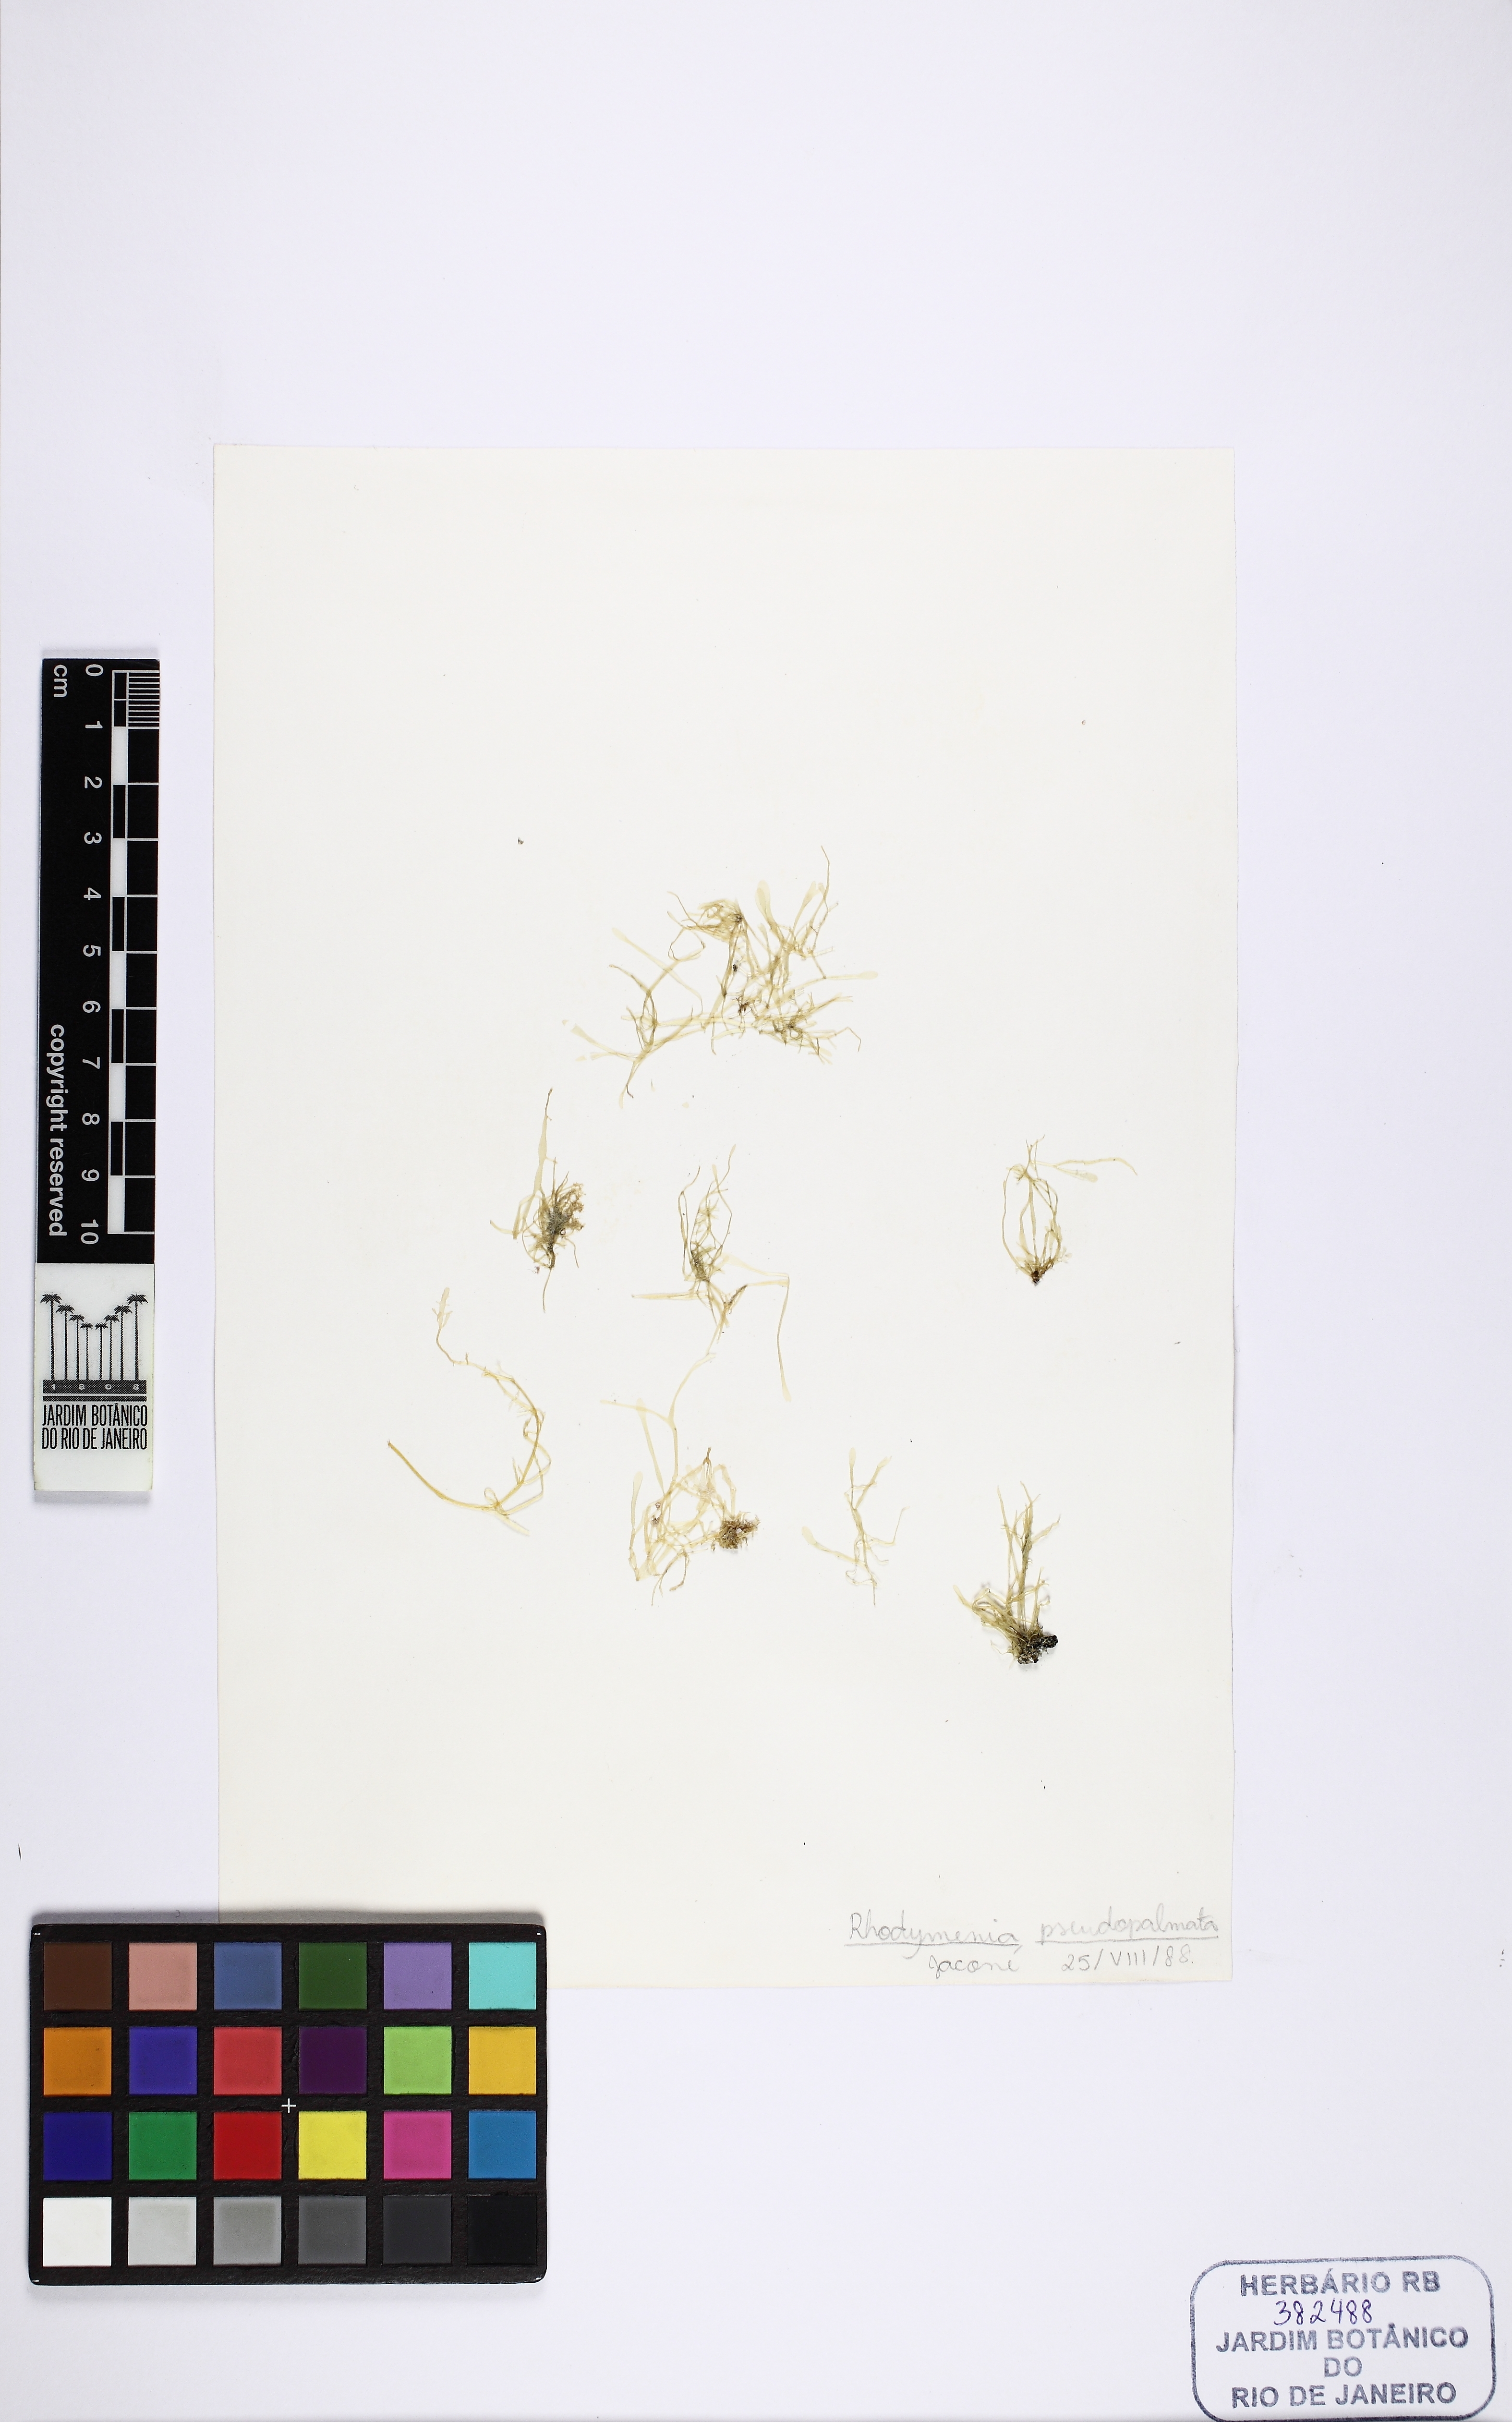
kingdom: Plantae
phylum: Rhodophyta
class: Florideophyceae
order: Rhodymeniales
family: Rhodymeniaceae
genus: Rhodymenia
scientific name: Rhodymenia pseudopalmata
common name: Palmate roseweed
